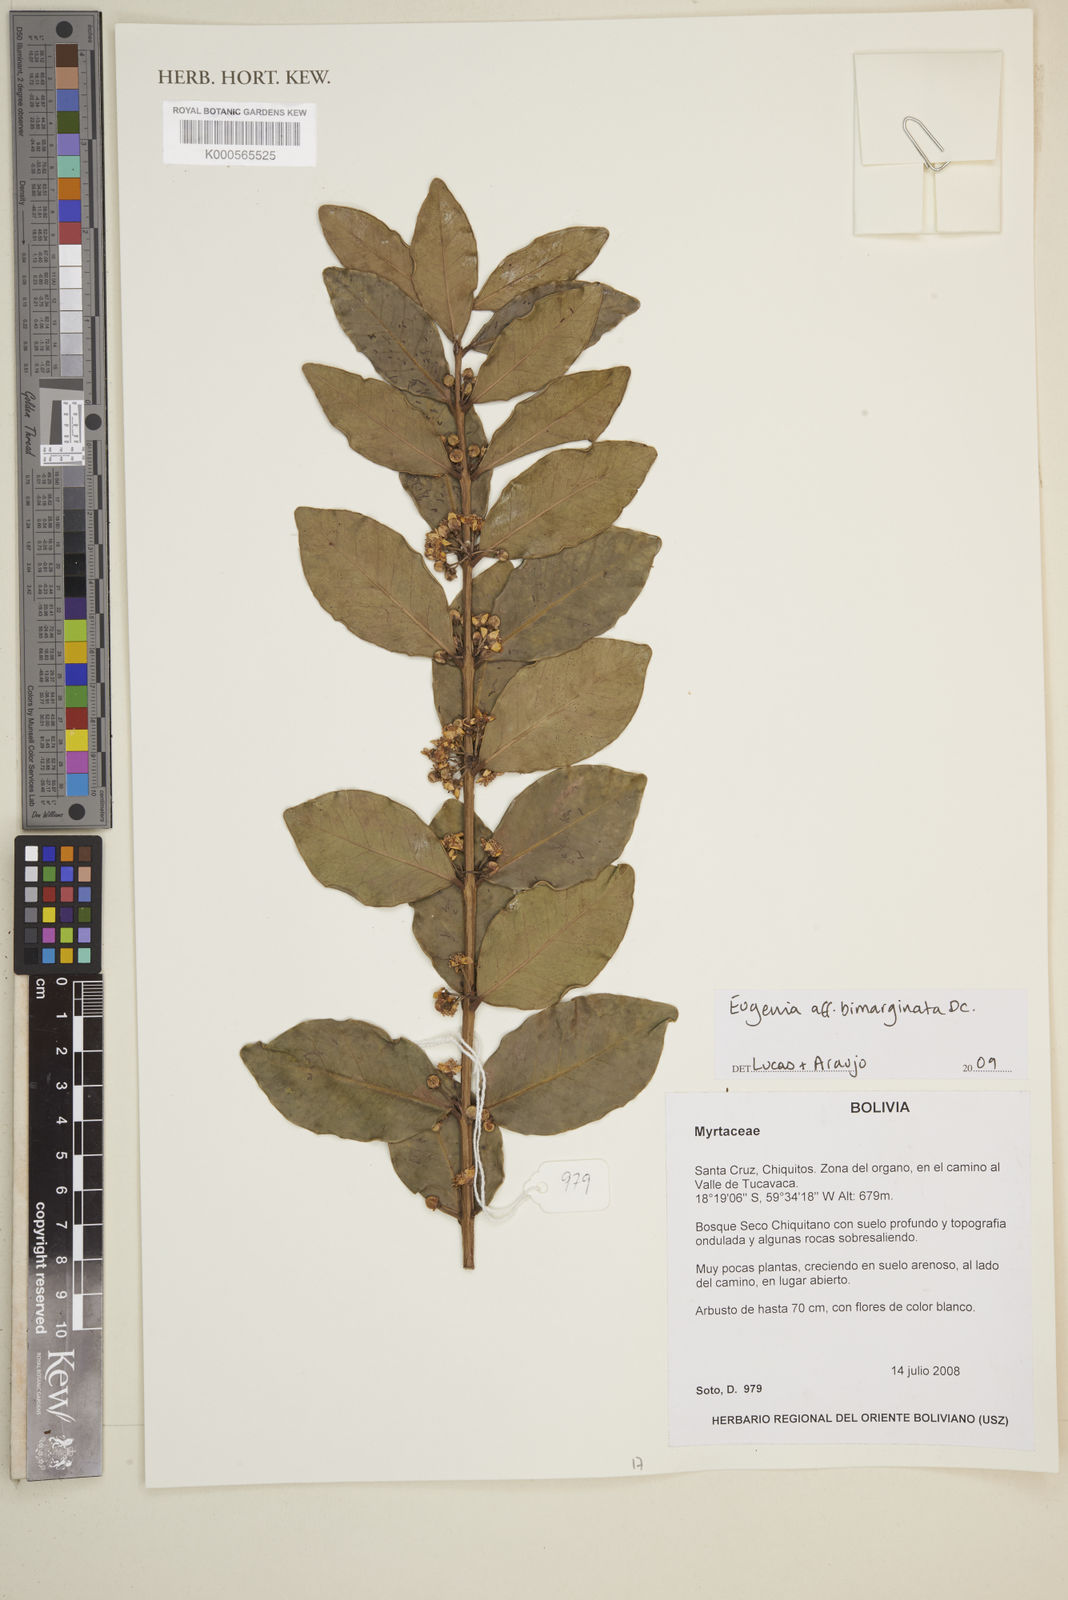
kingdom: Plantae
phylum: Tracheophyta
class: Magnoliopsida
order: Myrtales
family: Myrtaceae
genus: Eugenia
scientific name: Eugenia bimarginata
